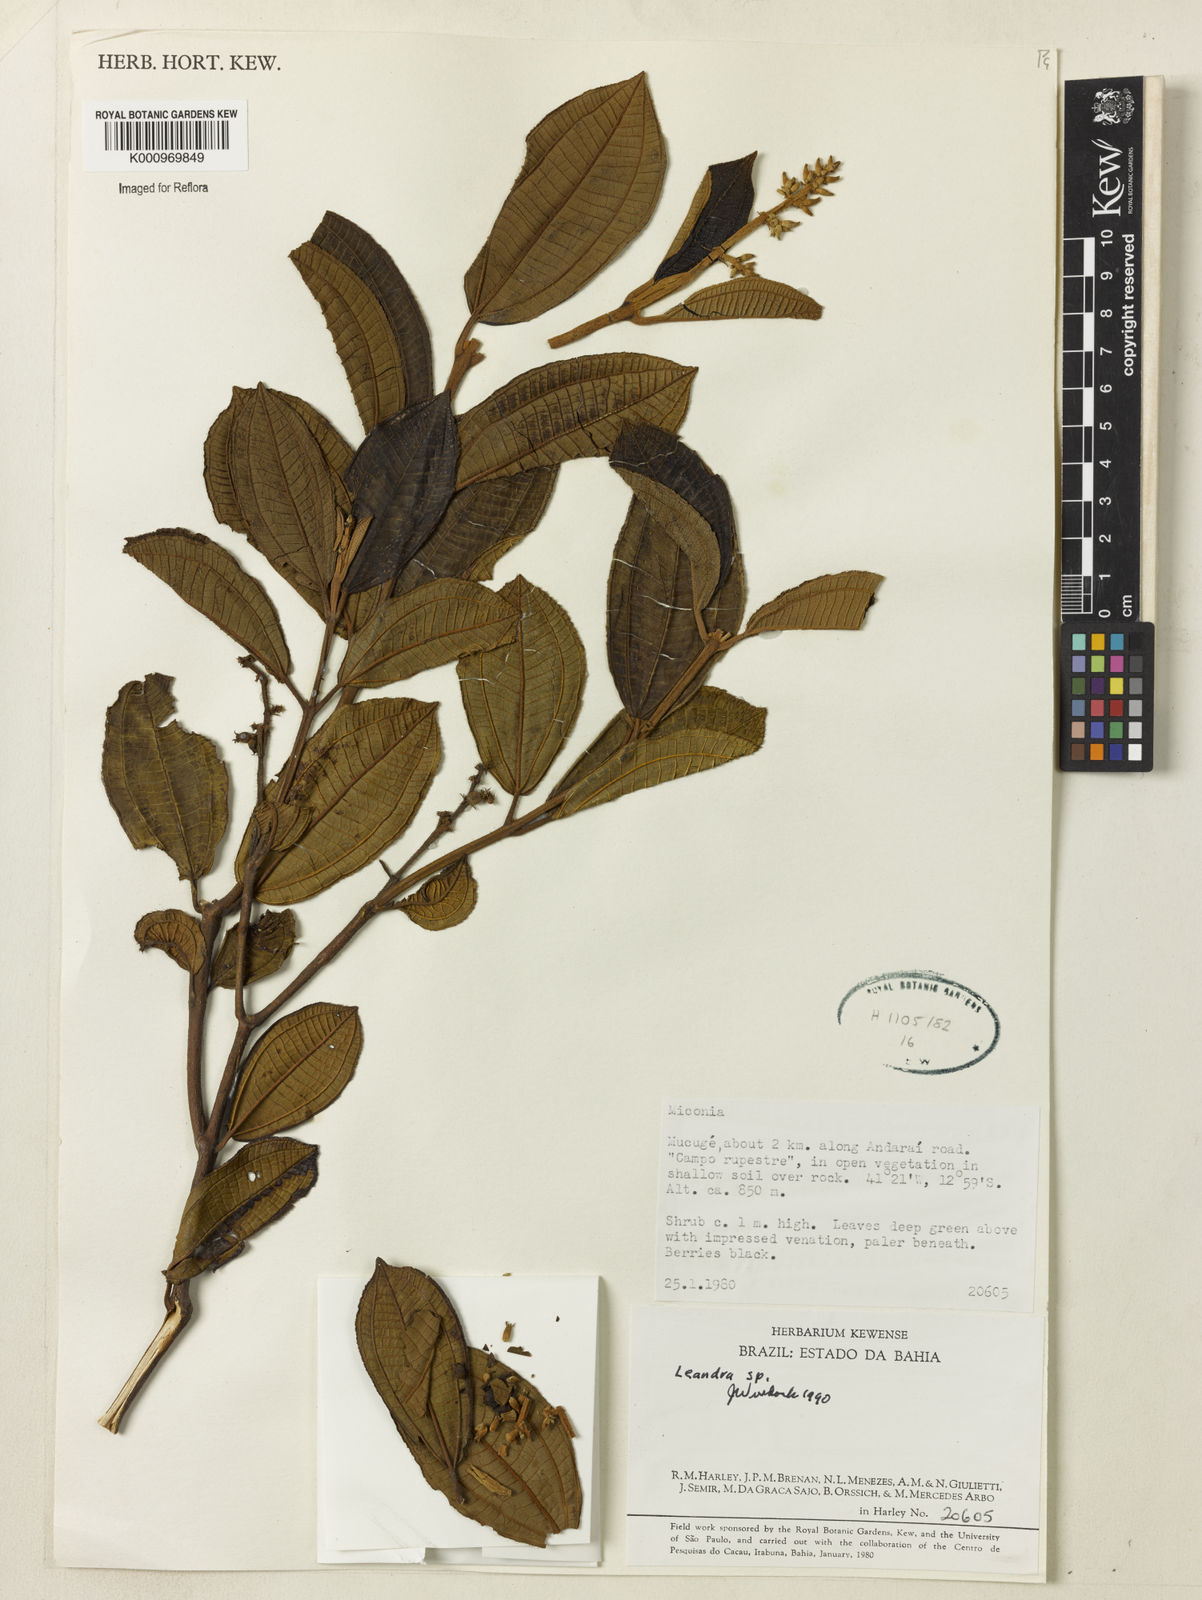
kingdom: Plantae
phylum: Tracheophyta
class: Magnoliopsida
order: Myrtales
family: Melastomataceae
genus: Miconia
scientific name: Miconia
